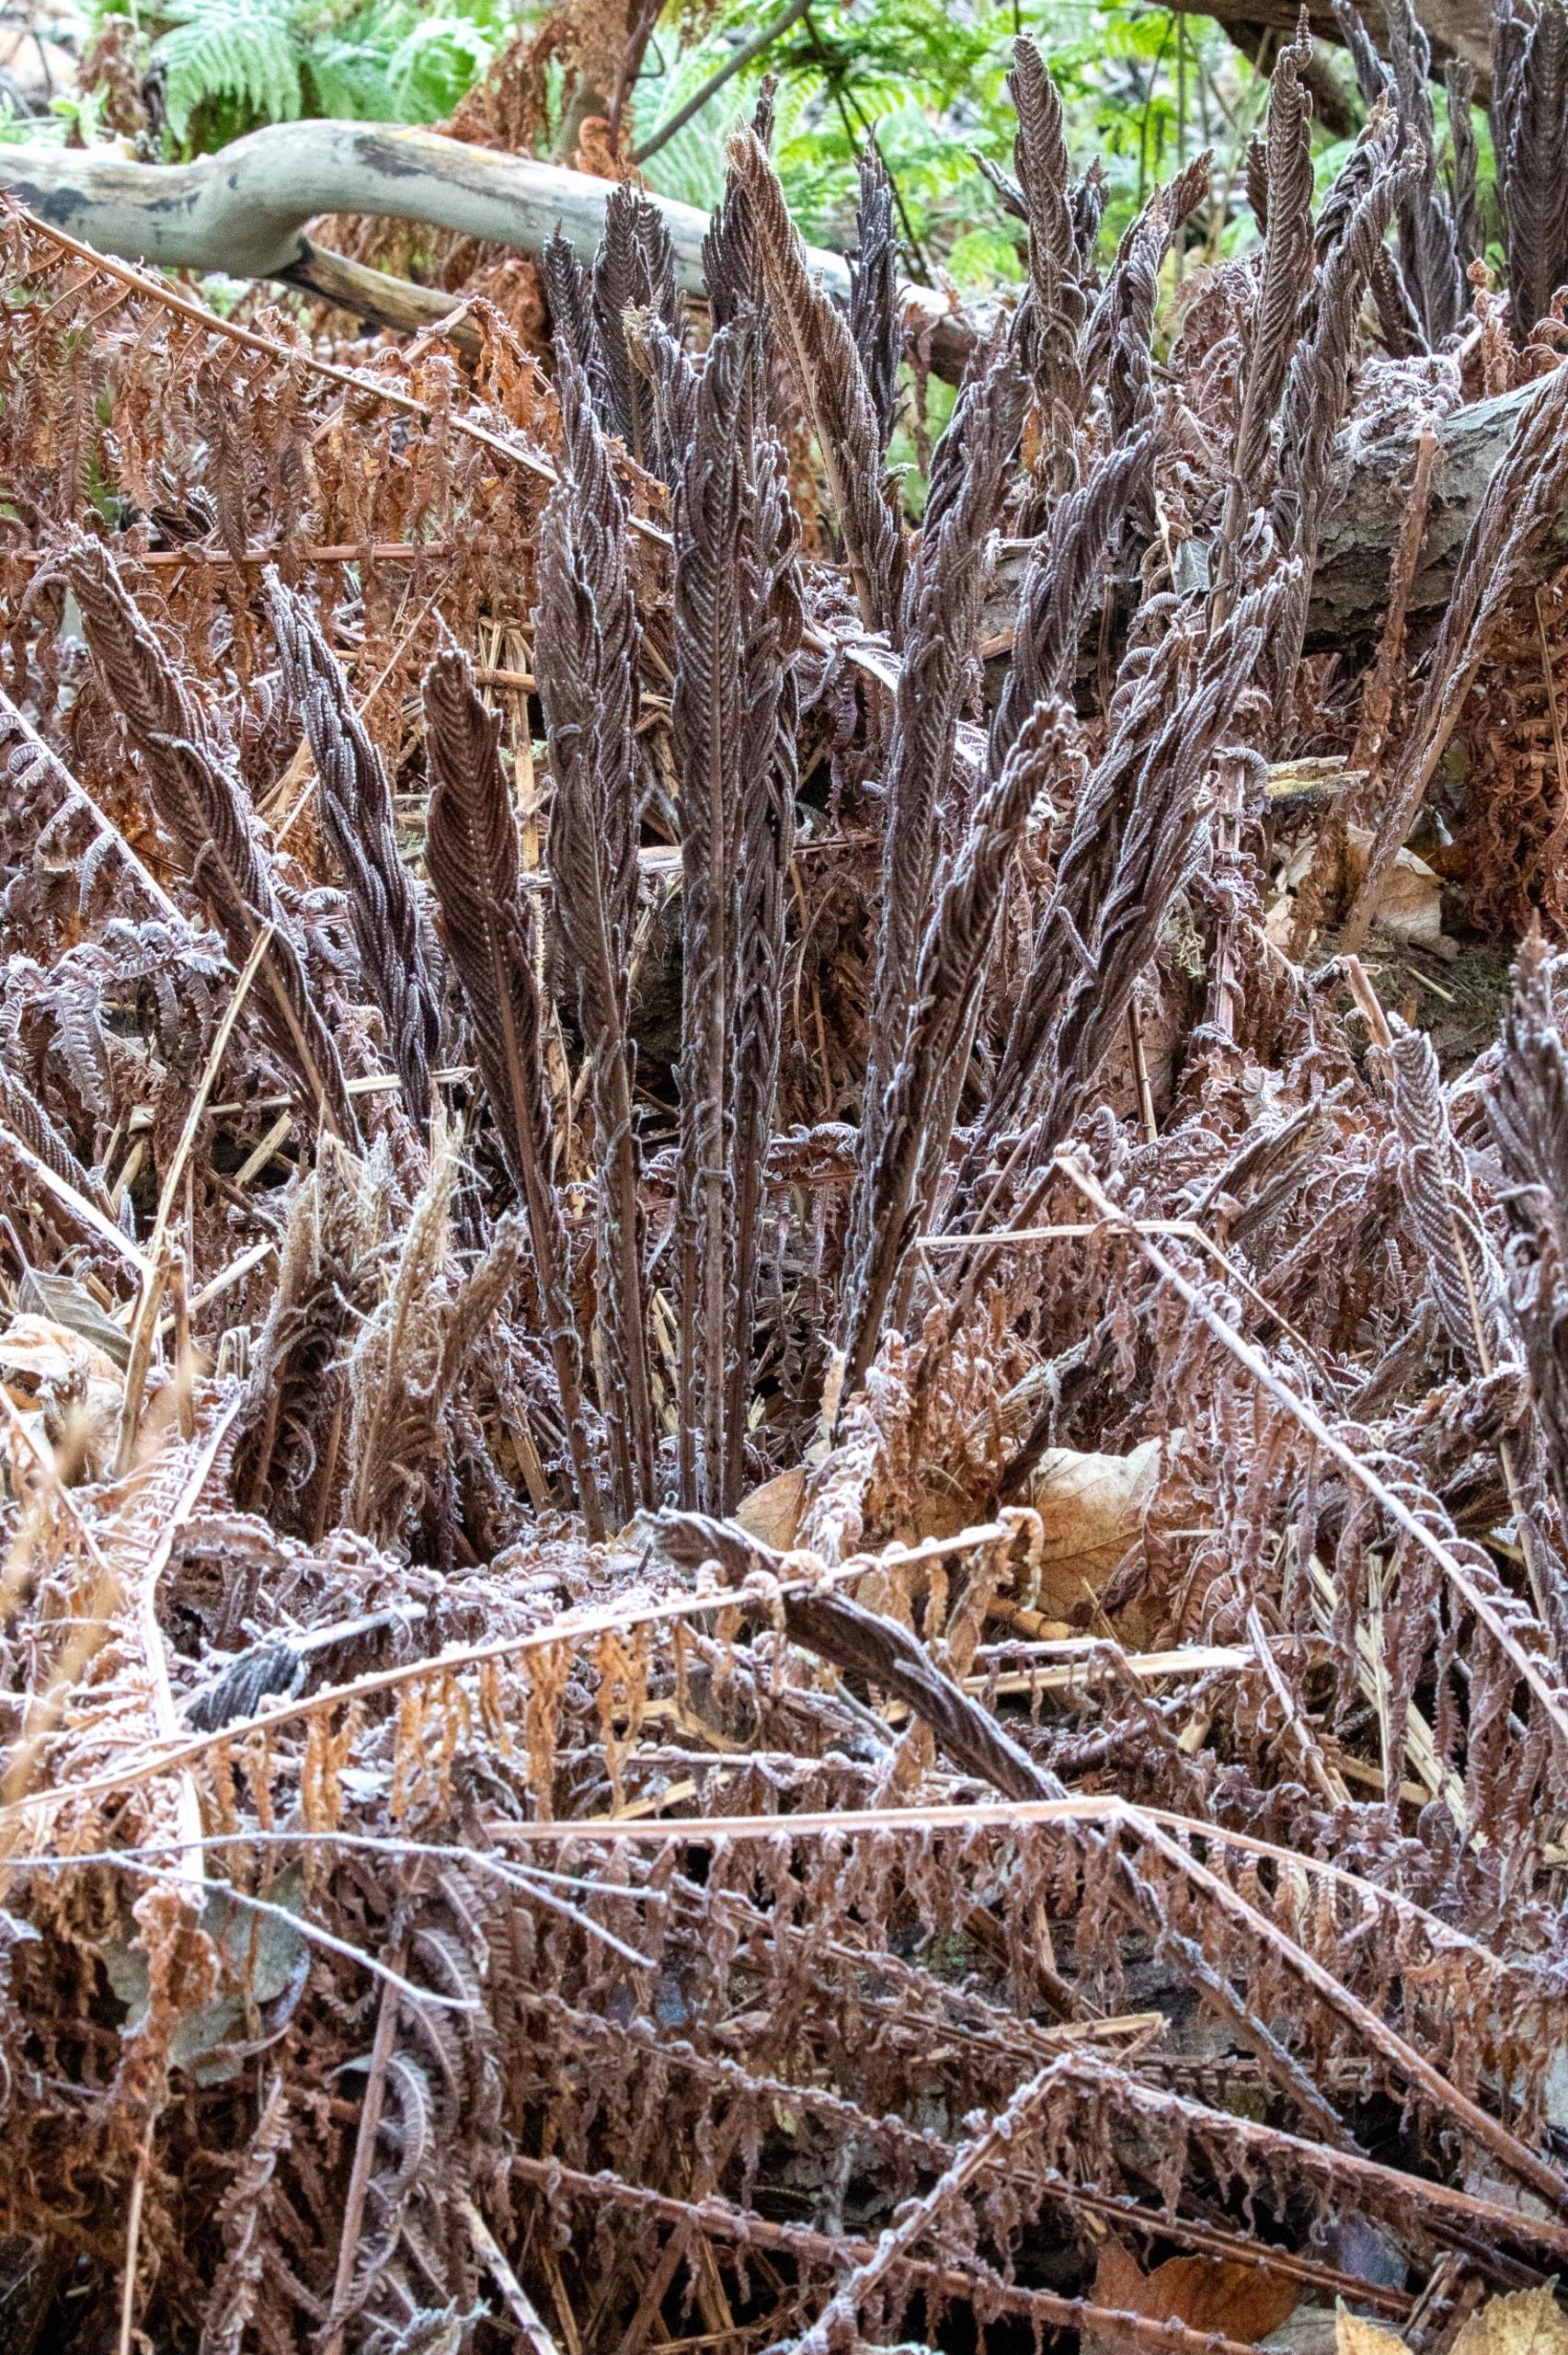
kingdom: Plantae
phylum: Tracheophyta
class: Polypodiopsida
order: Polypodiales
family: Onocleaceae
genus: Matteuccia
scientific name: Matteuccia struthiopteris
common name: Strudsvinge
